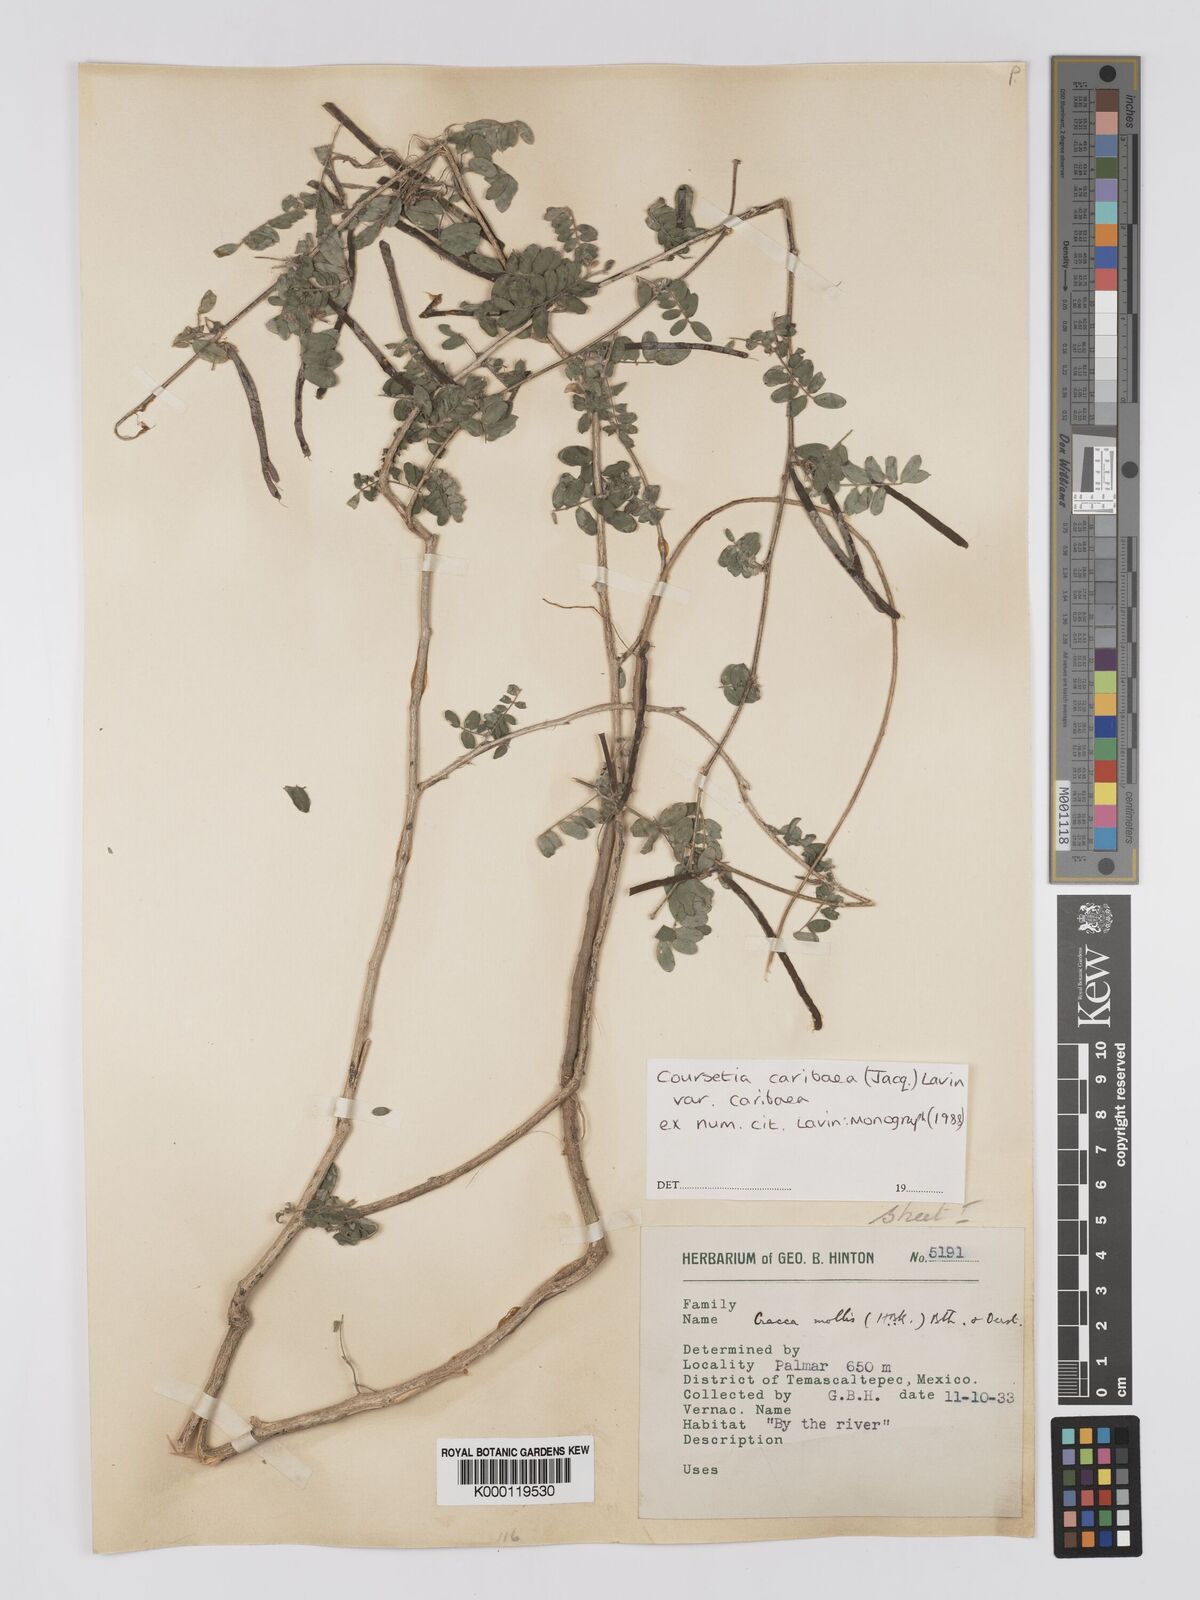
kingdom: Plantae
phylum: Tracheophyta
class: Magnoliopsida
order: Fabales
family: Fabaceae
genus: Coursetia
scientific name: Coursetia caribaea
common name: Anil falso
